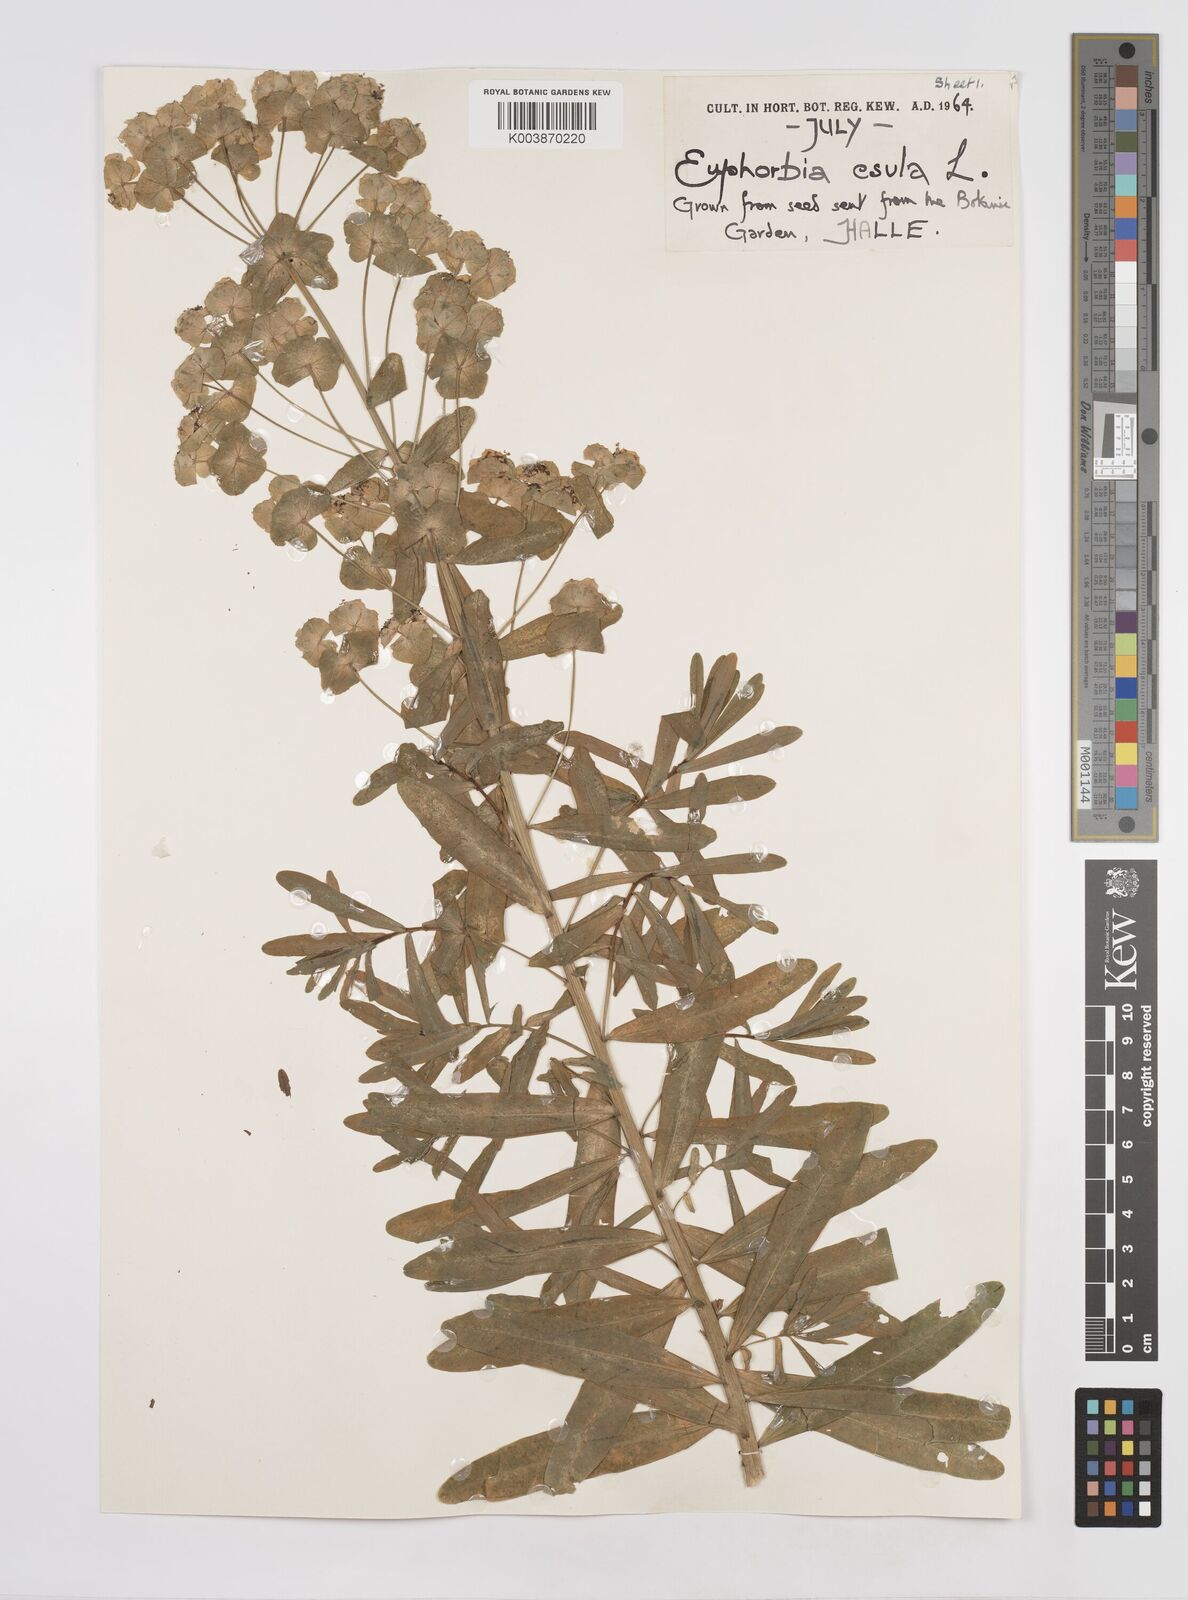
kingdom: Plantae
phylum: Tracheophyta
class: Magnoliopsida
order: Malpighiales
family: Euphorbiaceae
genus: Euphorbia
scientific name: Euphorbia esula
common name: Leafy spurge
